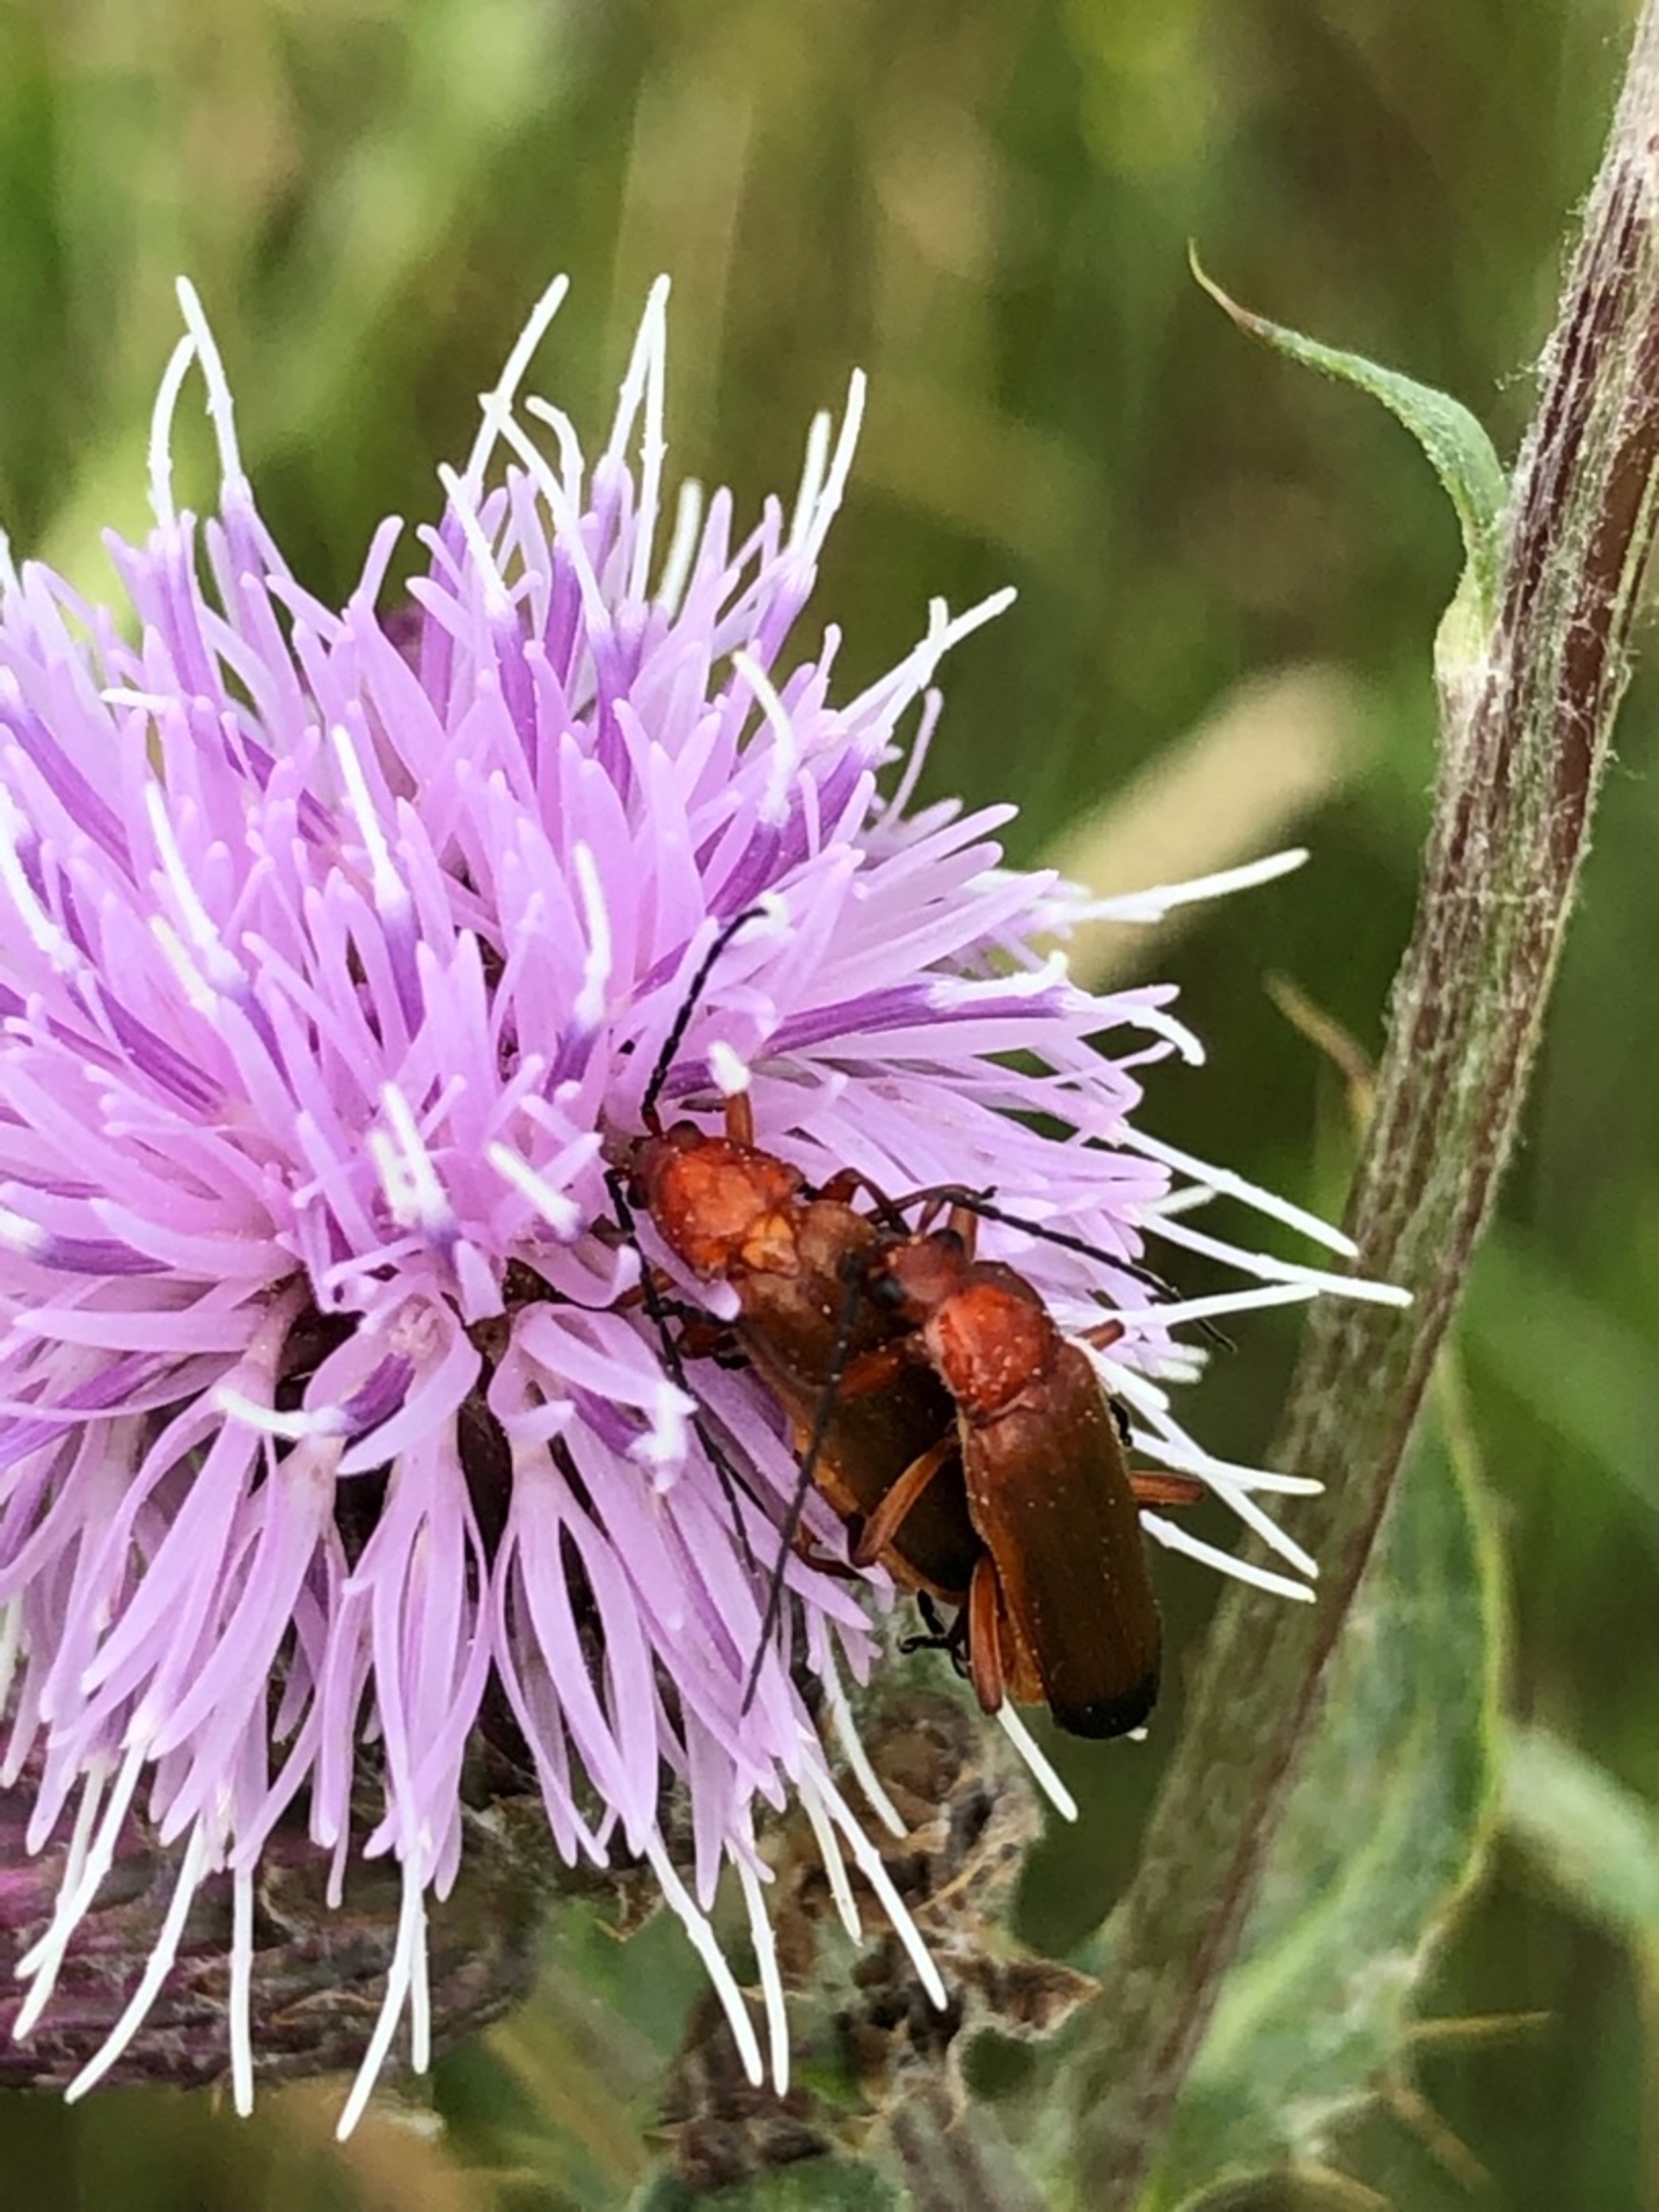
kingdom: Animalia
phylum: Arthropoda
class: Insecta
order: Coleoptera
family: Cantharidae
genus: Rhagonycha
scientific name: Rhagonycha fulva
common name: Præstebille
